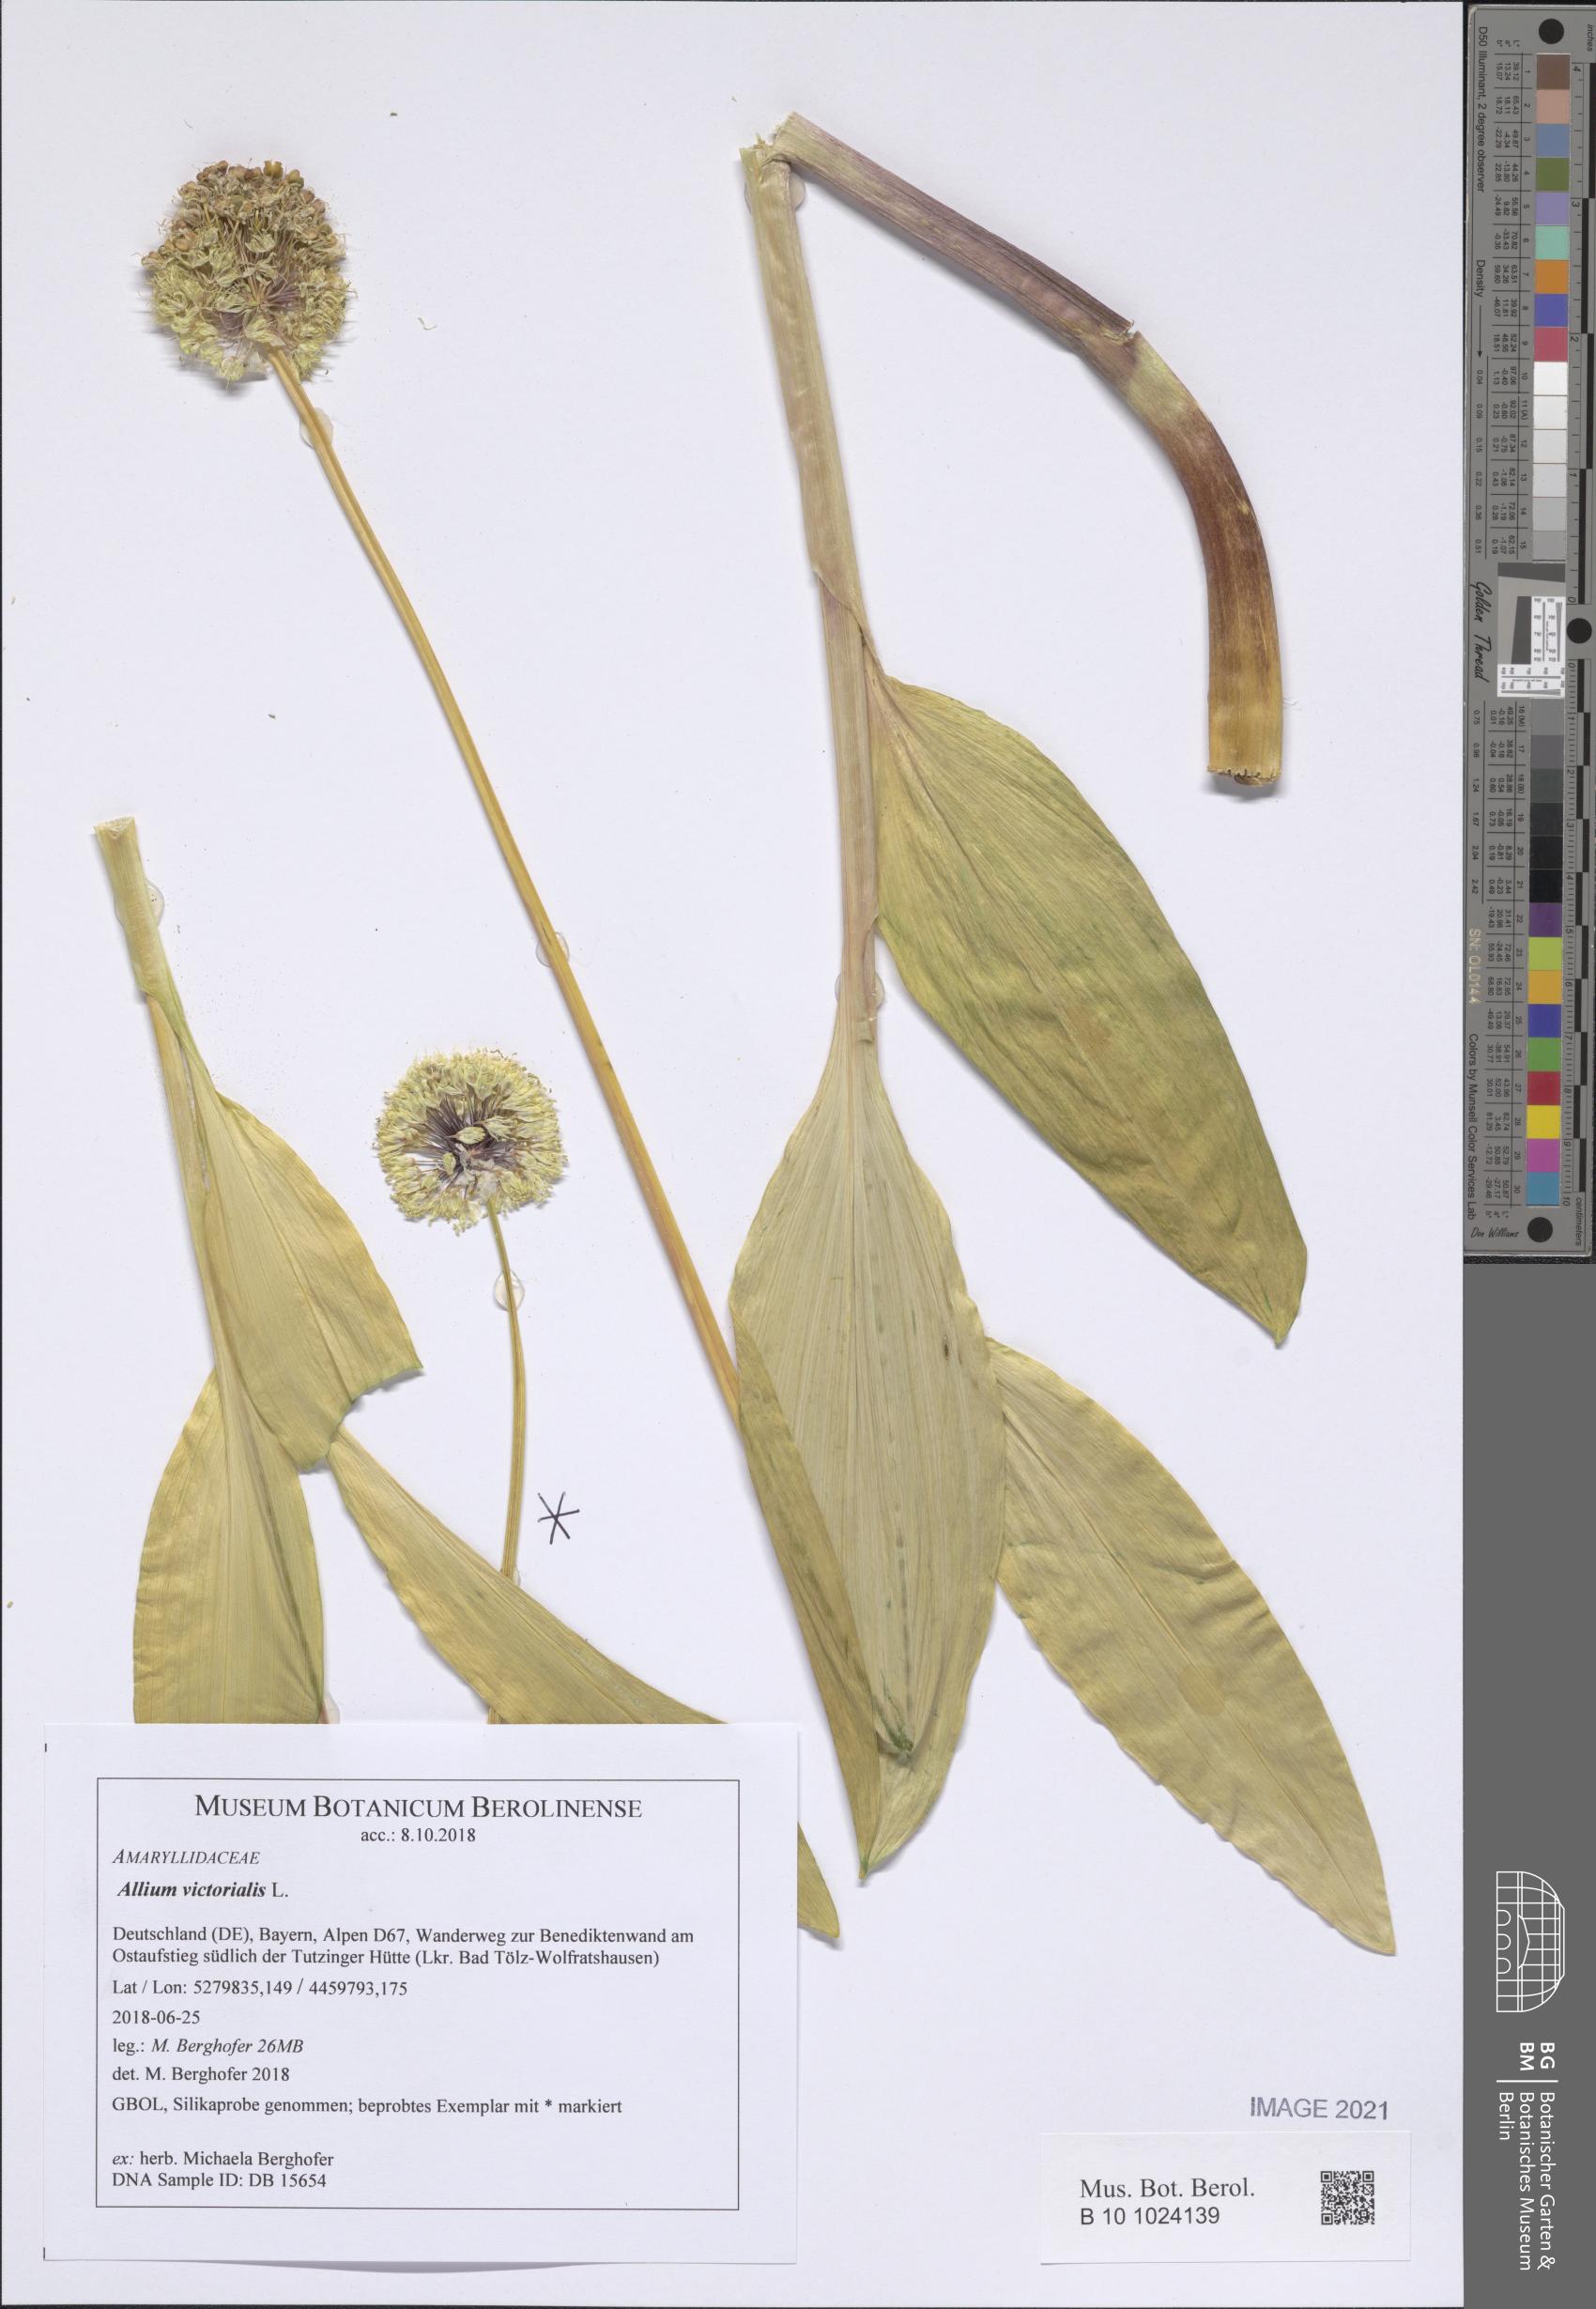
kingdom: Plantae
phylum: Tracheophyta
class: Liliopsida
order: Asparagales
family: Amaryllidaceae
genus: Allium
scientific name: Allium victorialis
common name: Alpine leek
